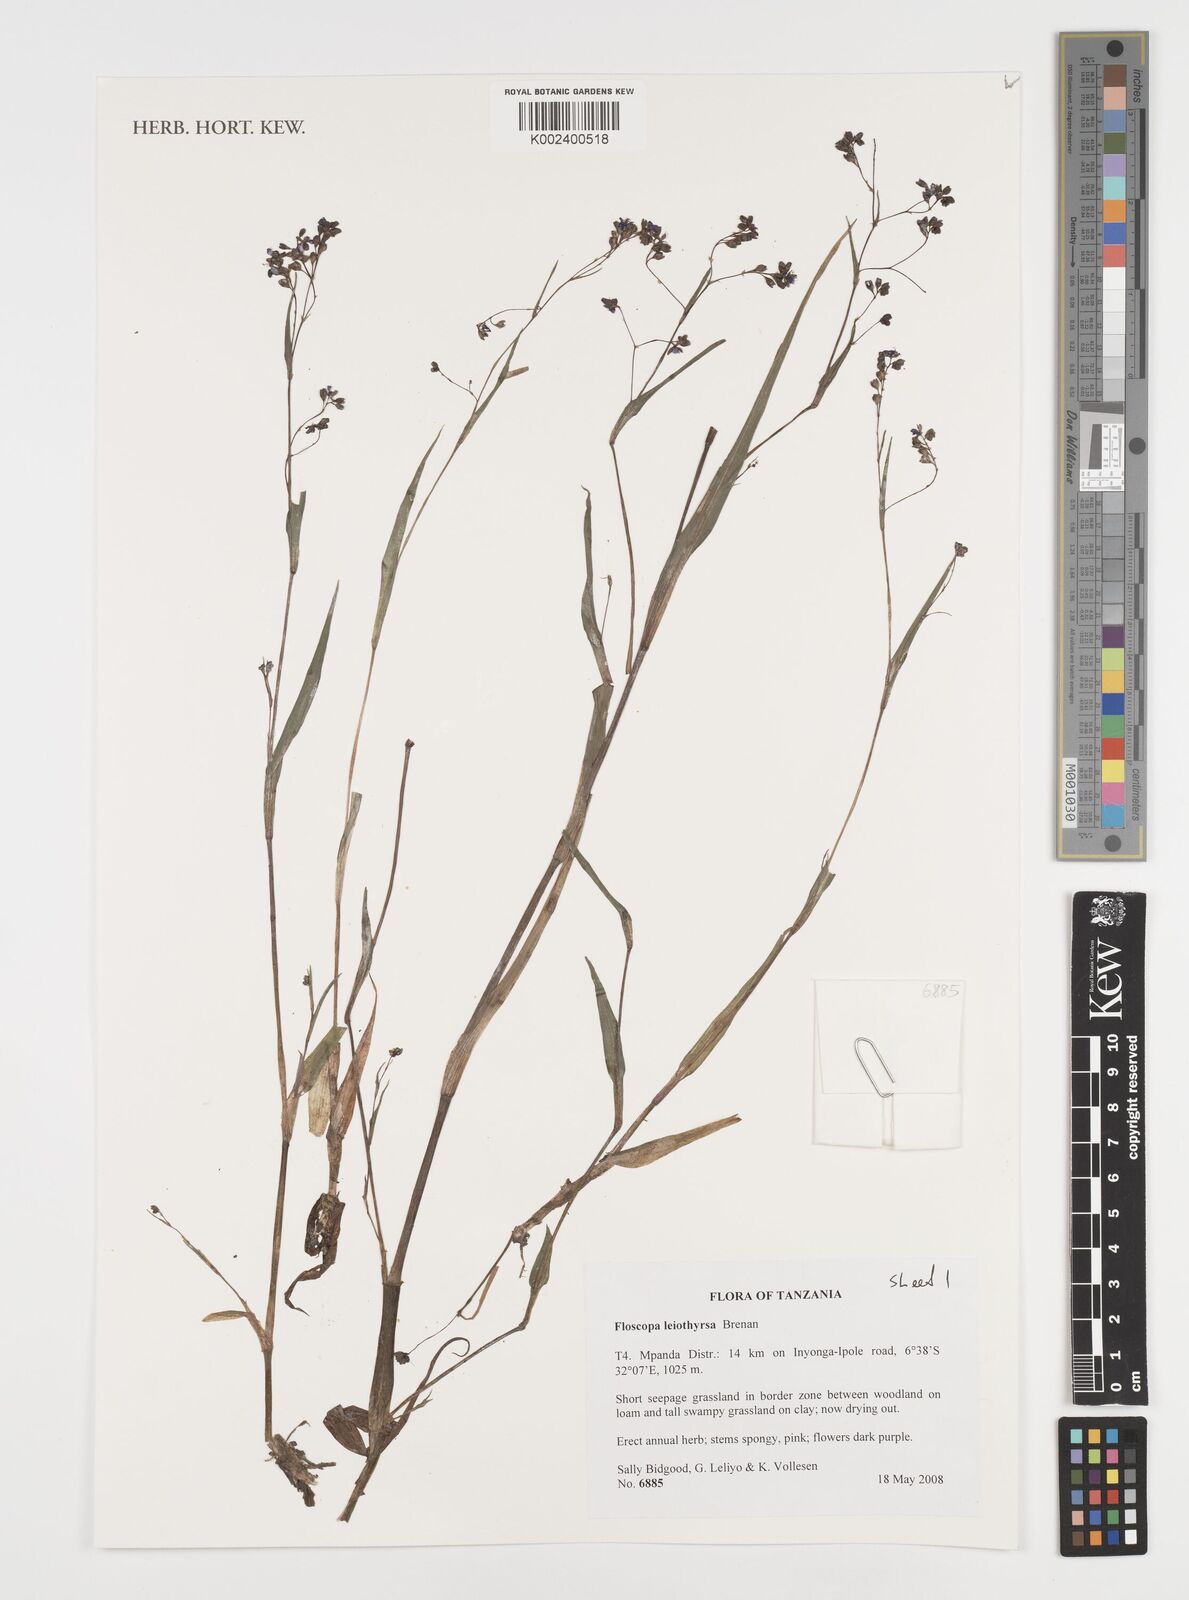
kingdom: Plantae
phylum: Tracheophyta
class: Liliopsida
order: Commelinales
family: Commelinaceae
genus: Floscopa
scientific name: Floscopa leiothyrsa
